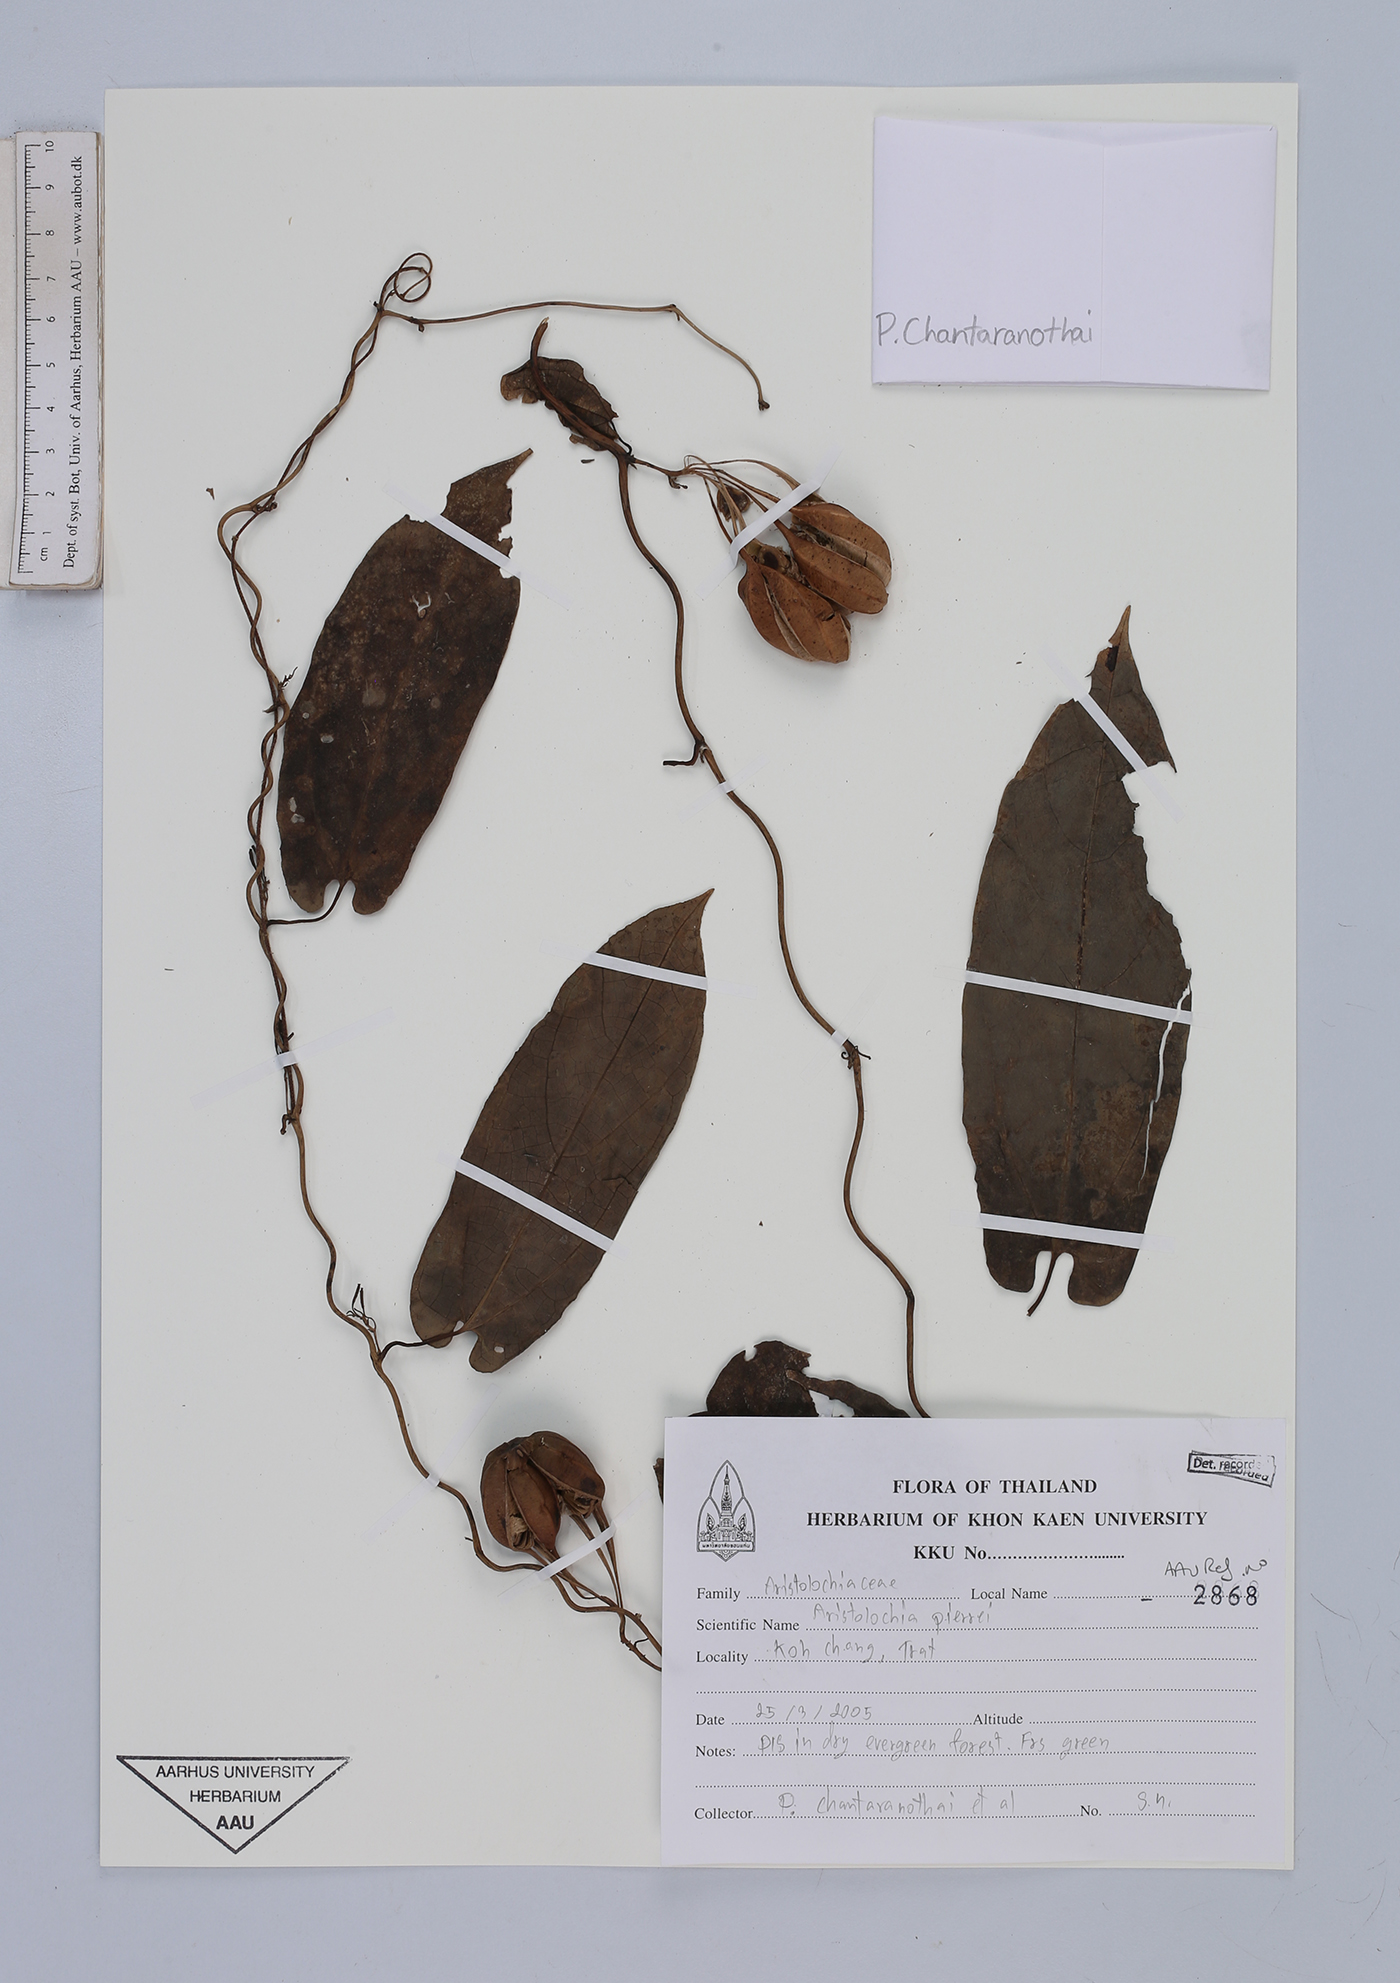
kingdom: Plantae
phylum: Tracheophyta
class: Magnoliopsida
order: Piperales
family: Aristolochiaceae
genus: Aristolochia
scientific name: Aristolochia pierrei
